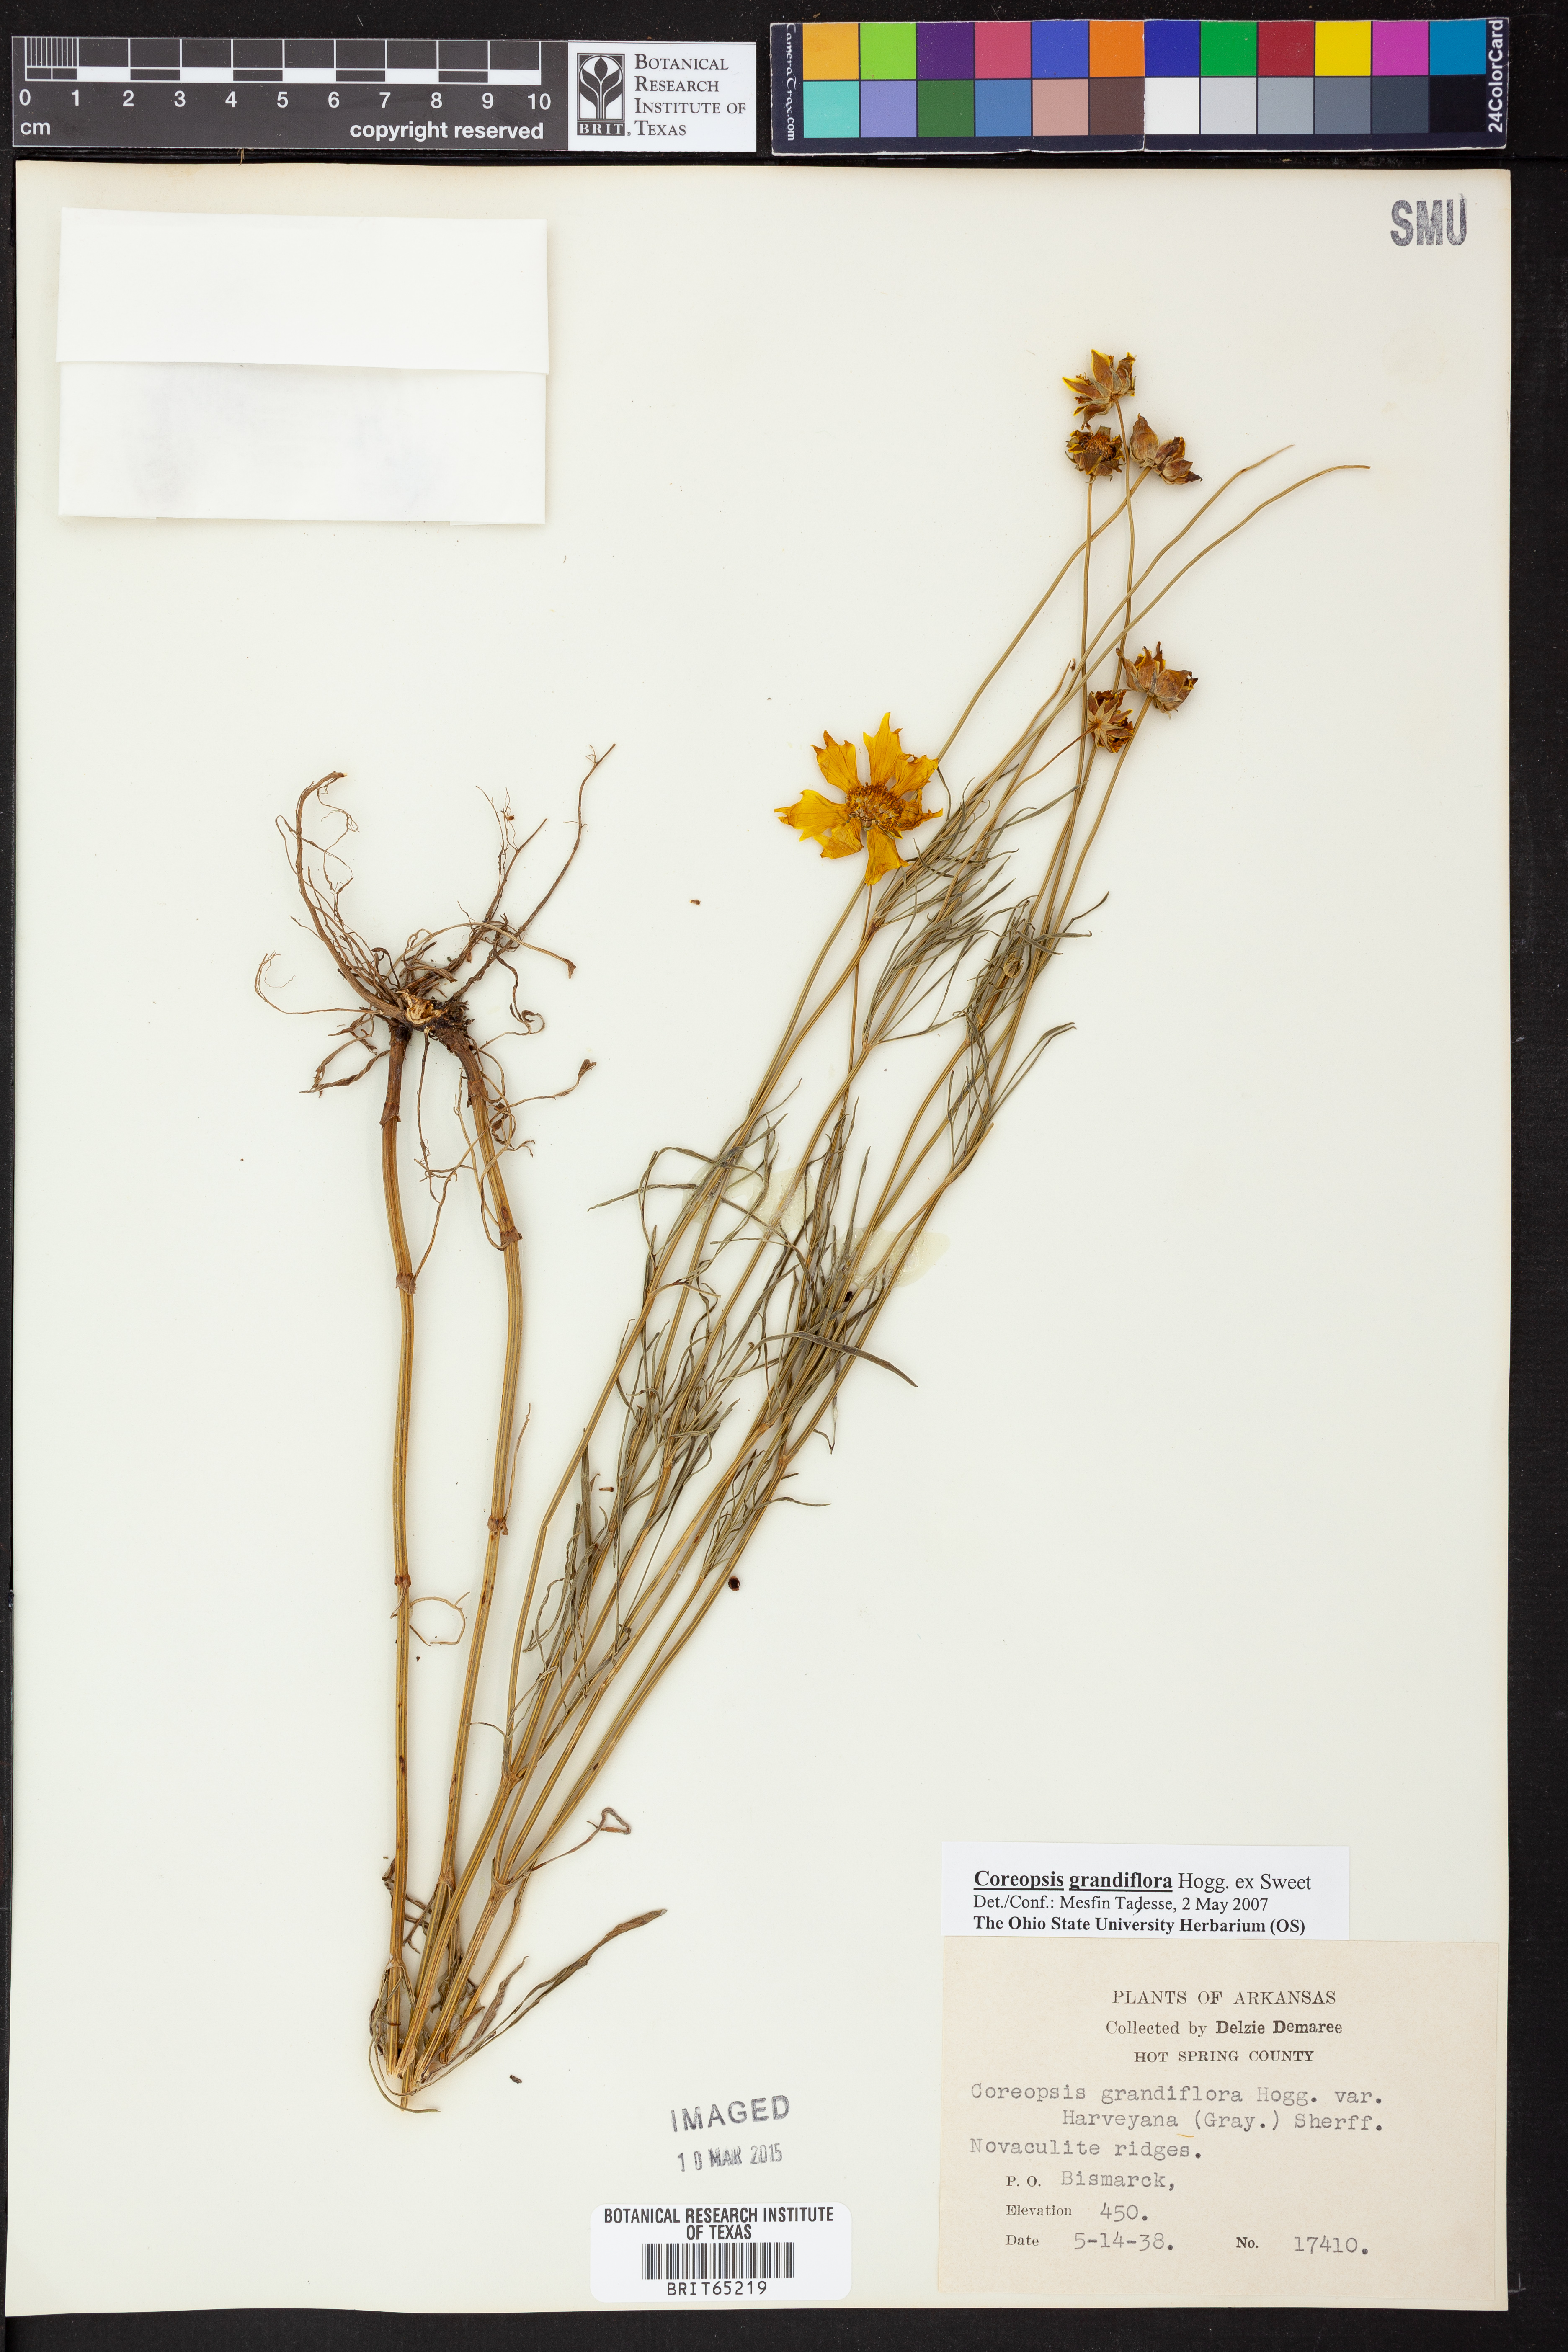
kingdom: Plantae
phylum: Tracheophyta
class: Magnoliopsida
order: Asterales
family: Asteraceae
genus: Coreopsis
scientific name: Coreopsis grandiflora
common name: Large-flowered tickseed
